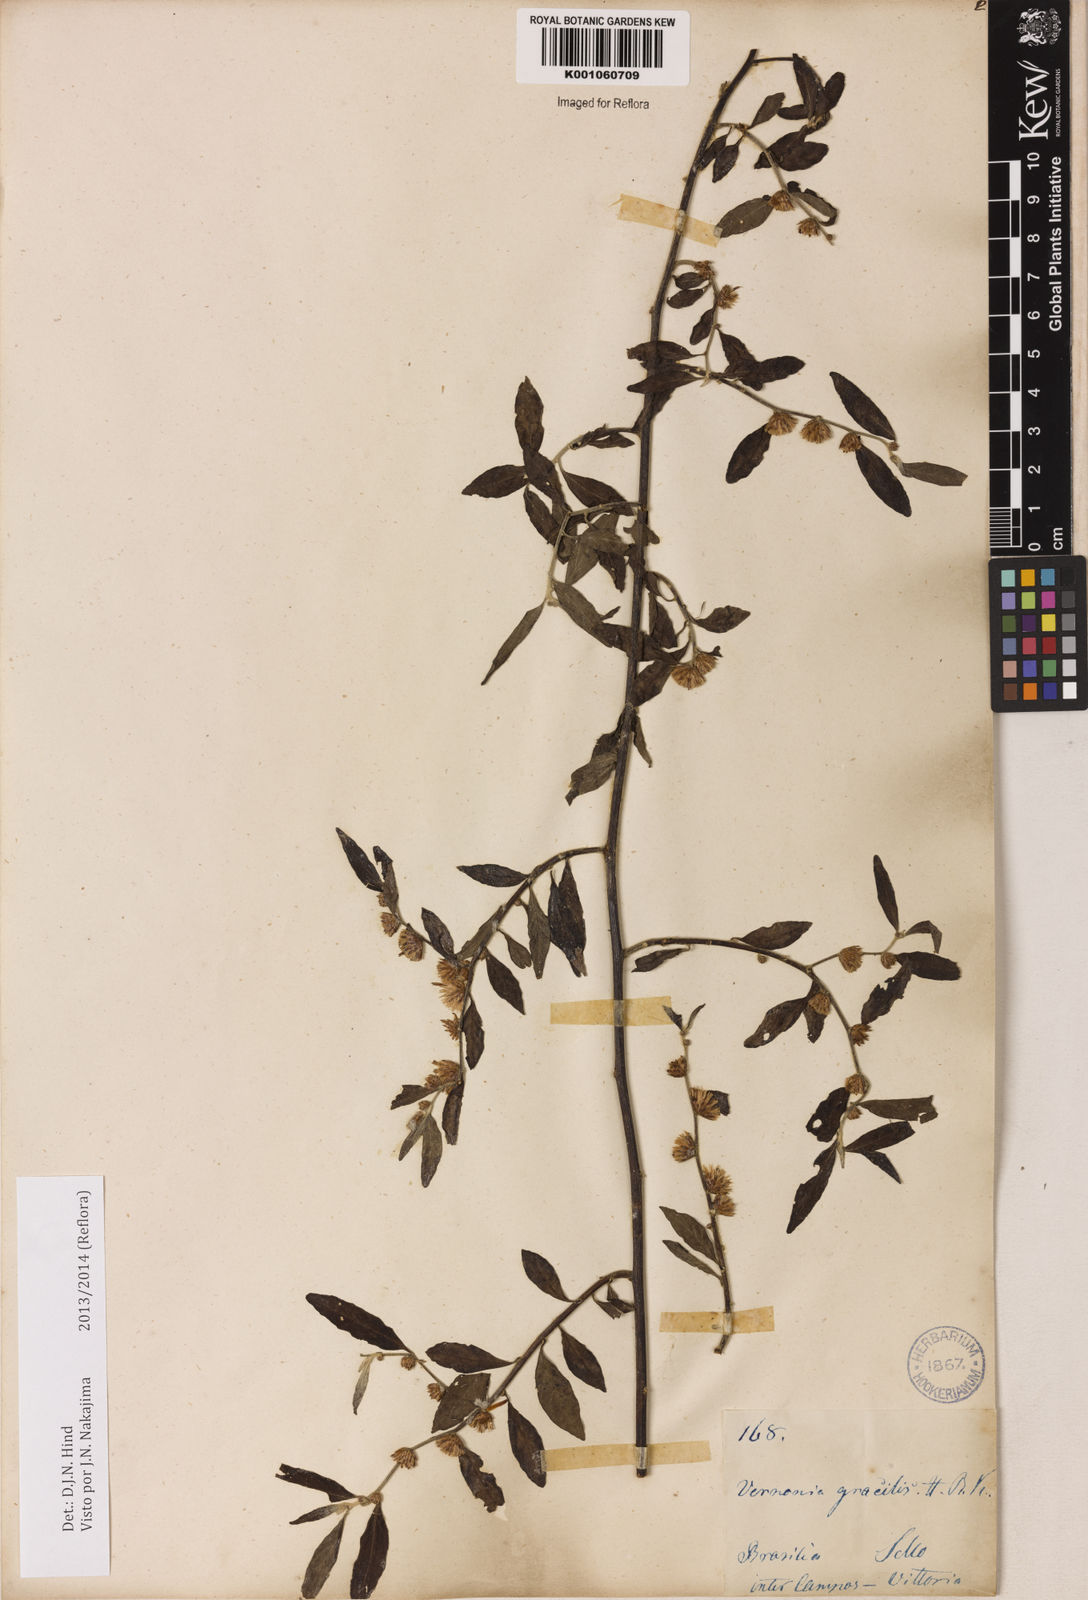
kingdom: Plantae
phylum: Tracheophyta
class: Magnoliopsida
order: Asterales
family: Asteraceae
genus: Lepidaploa
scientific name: Lepidaploa gracilis
